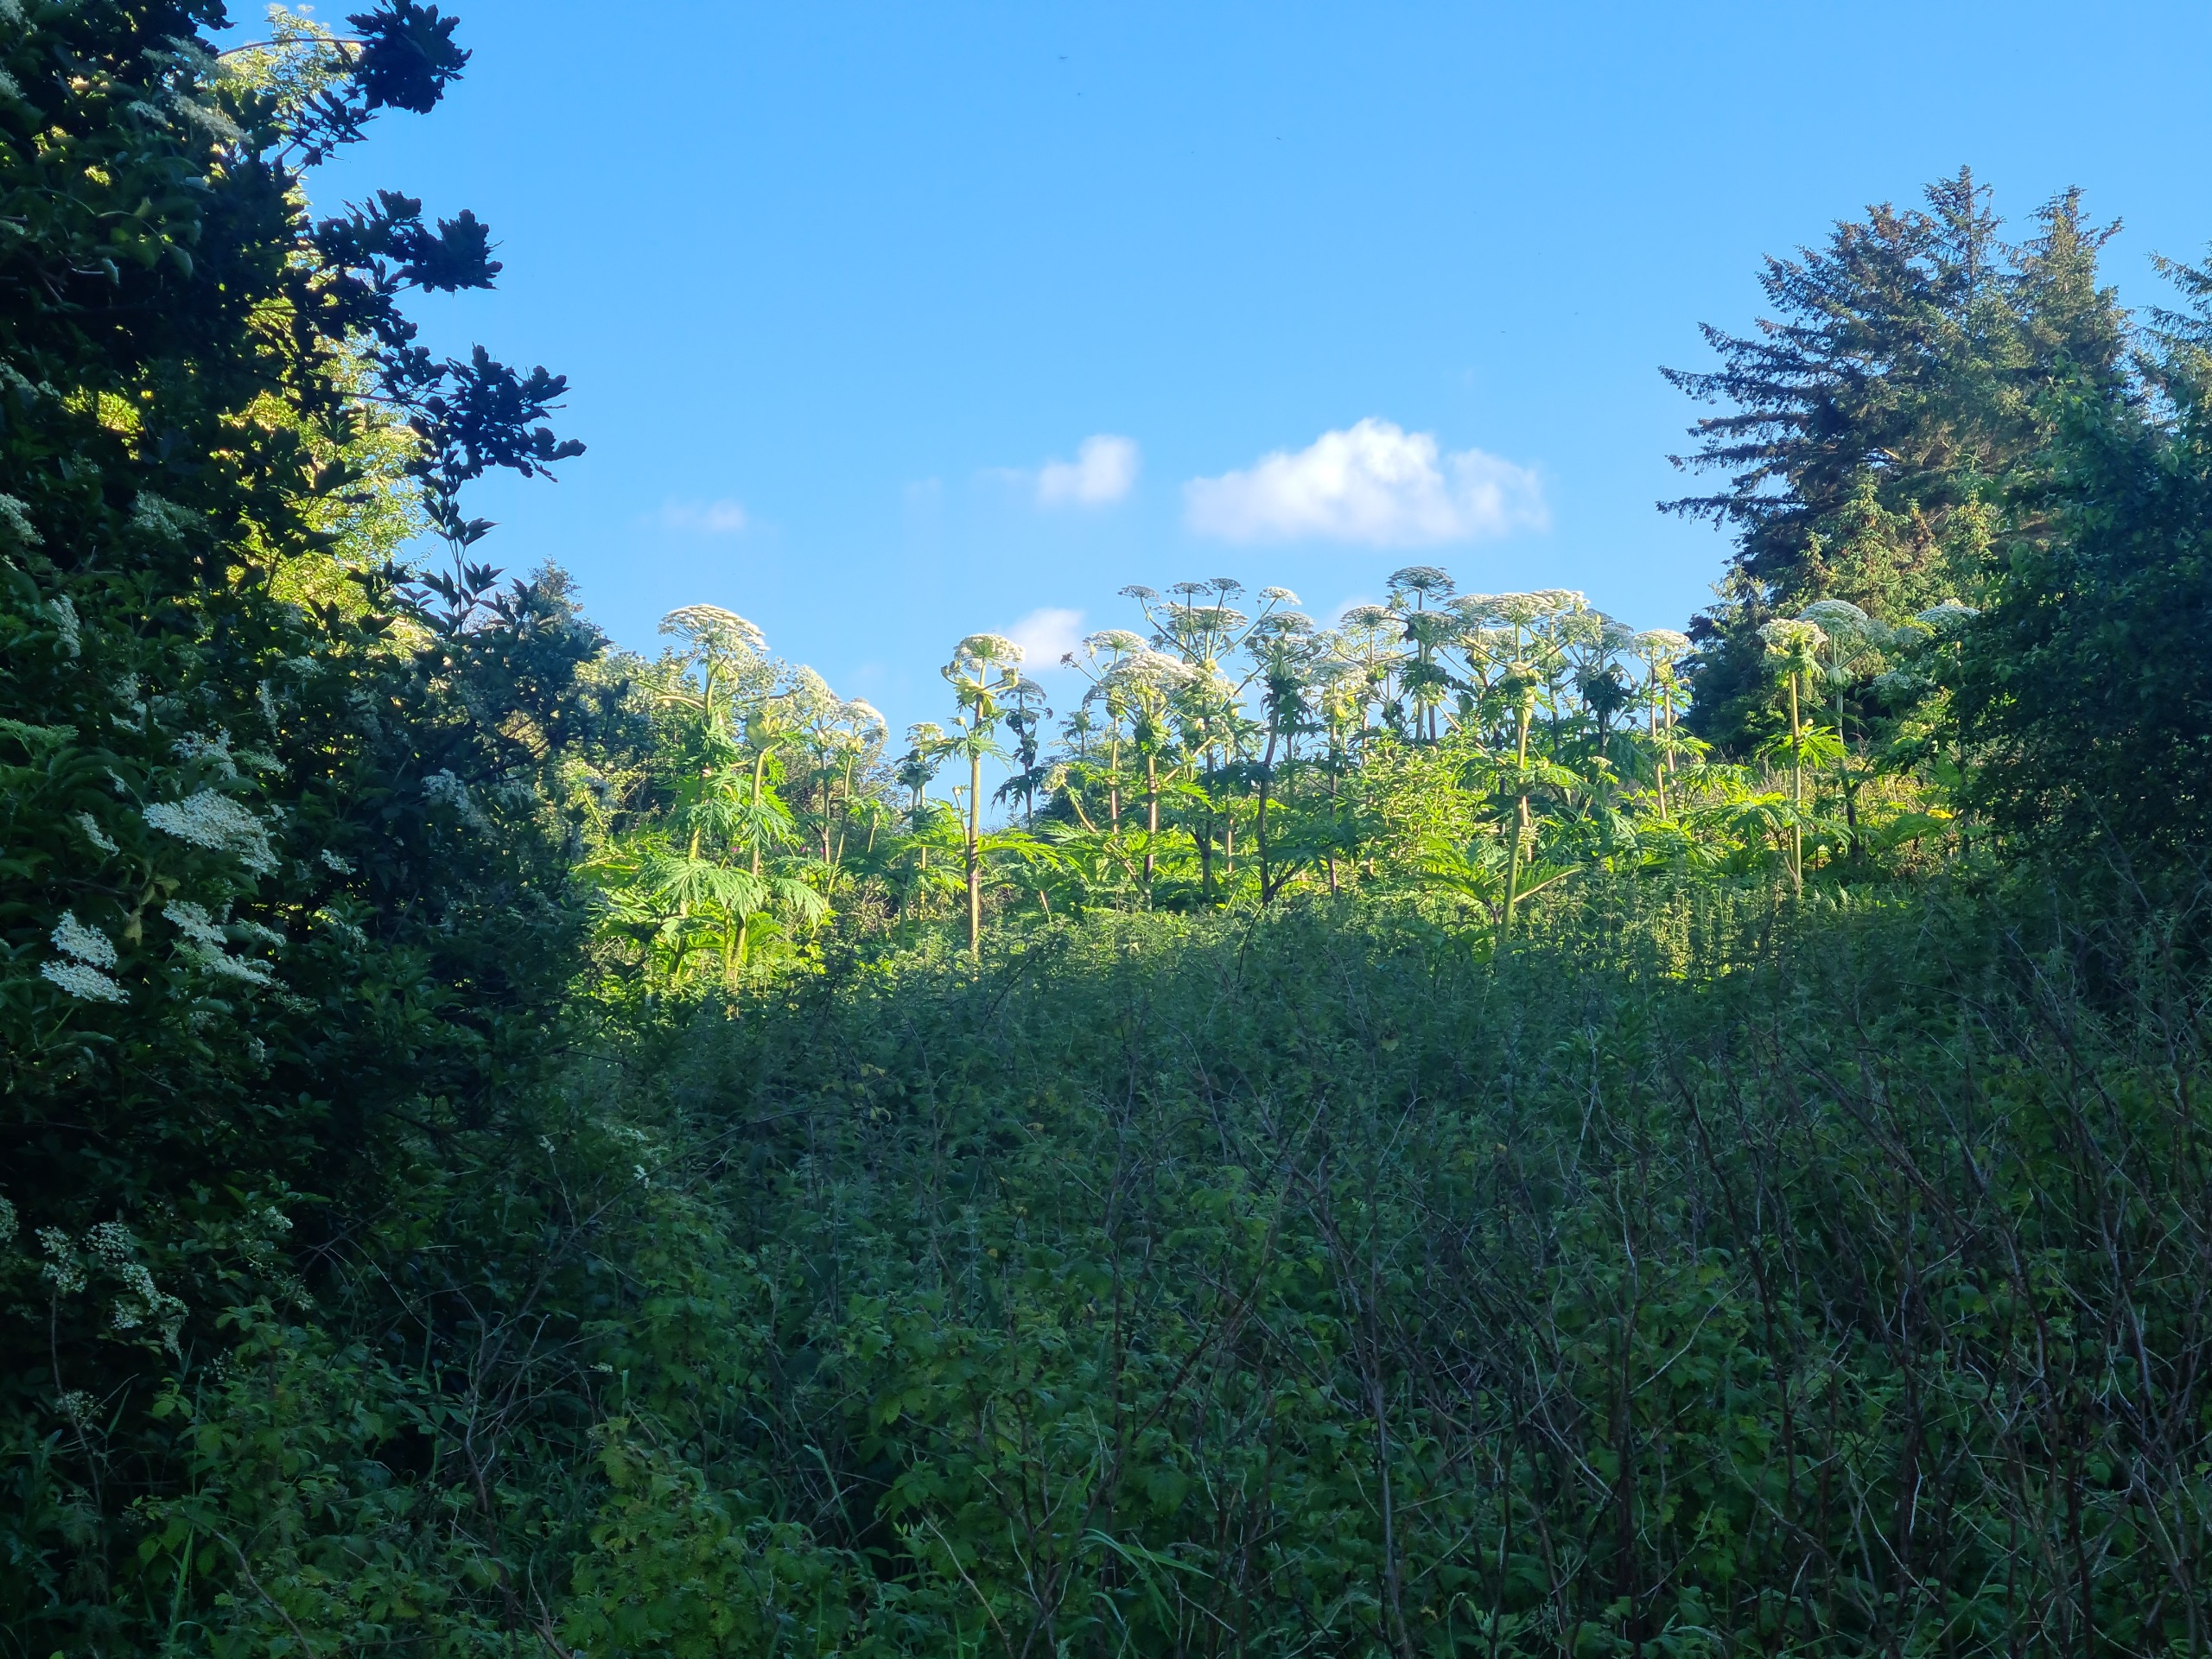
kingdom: Plantae
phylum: Tracheophyta
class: Magnoliopsida
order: Apiales
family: Apiaceae
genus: Heracleum
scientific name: Heracleum mantegazzianum
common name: Kæmpe-bjørneklo
